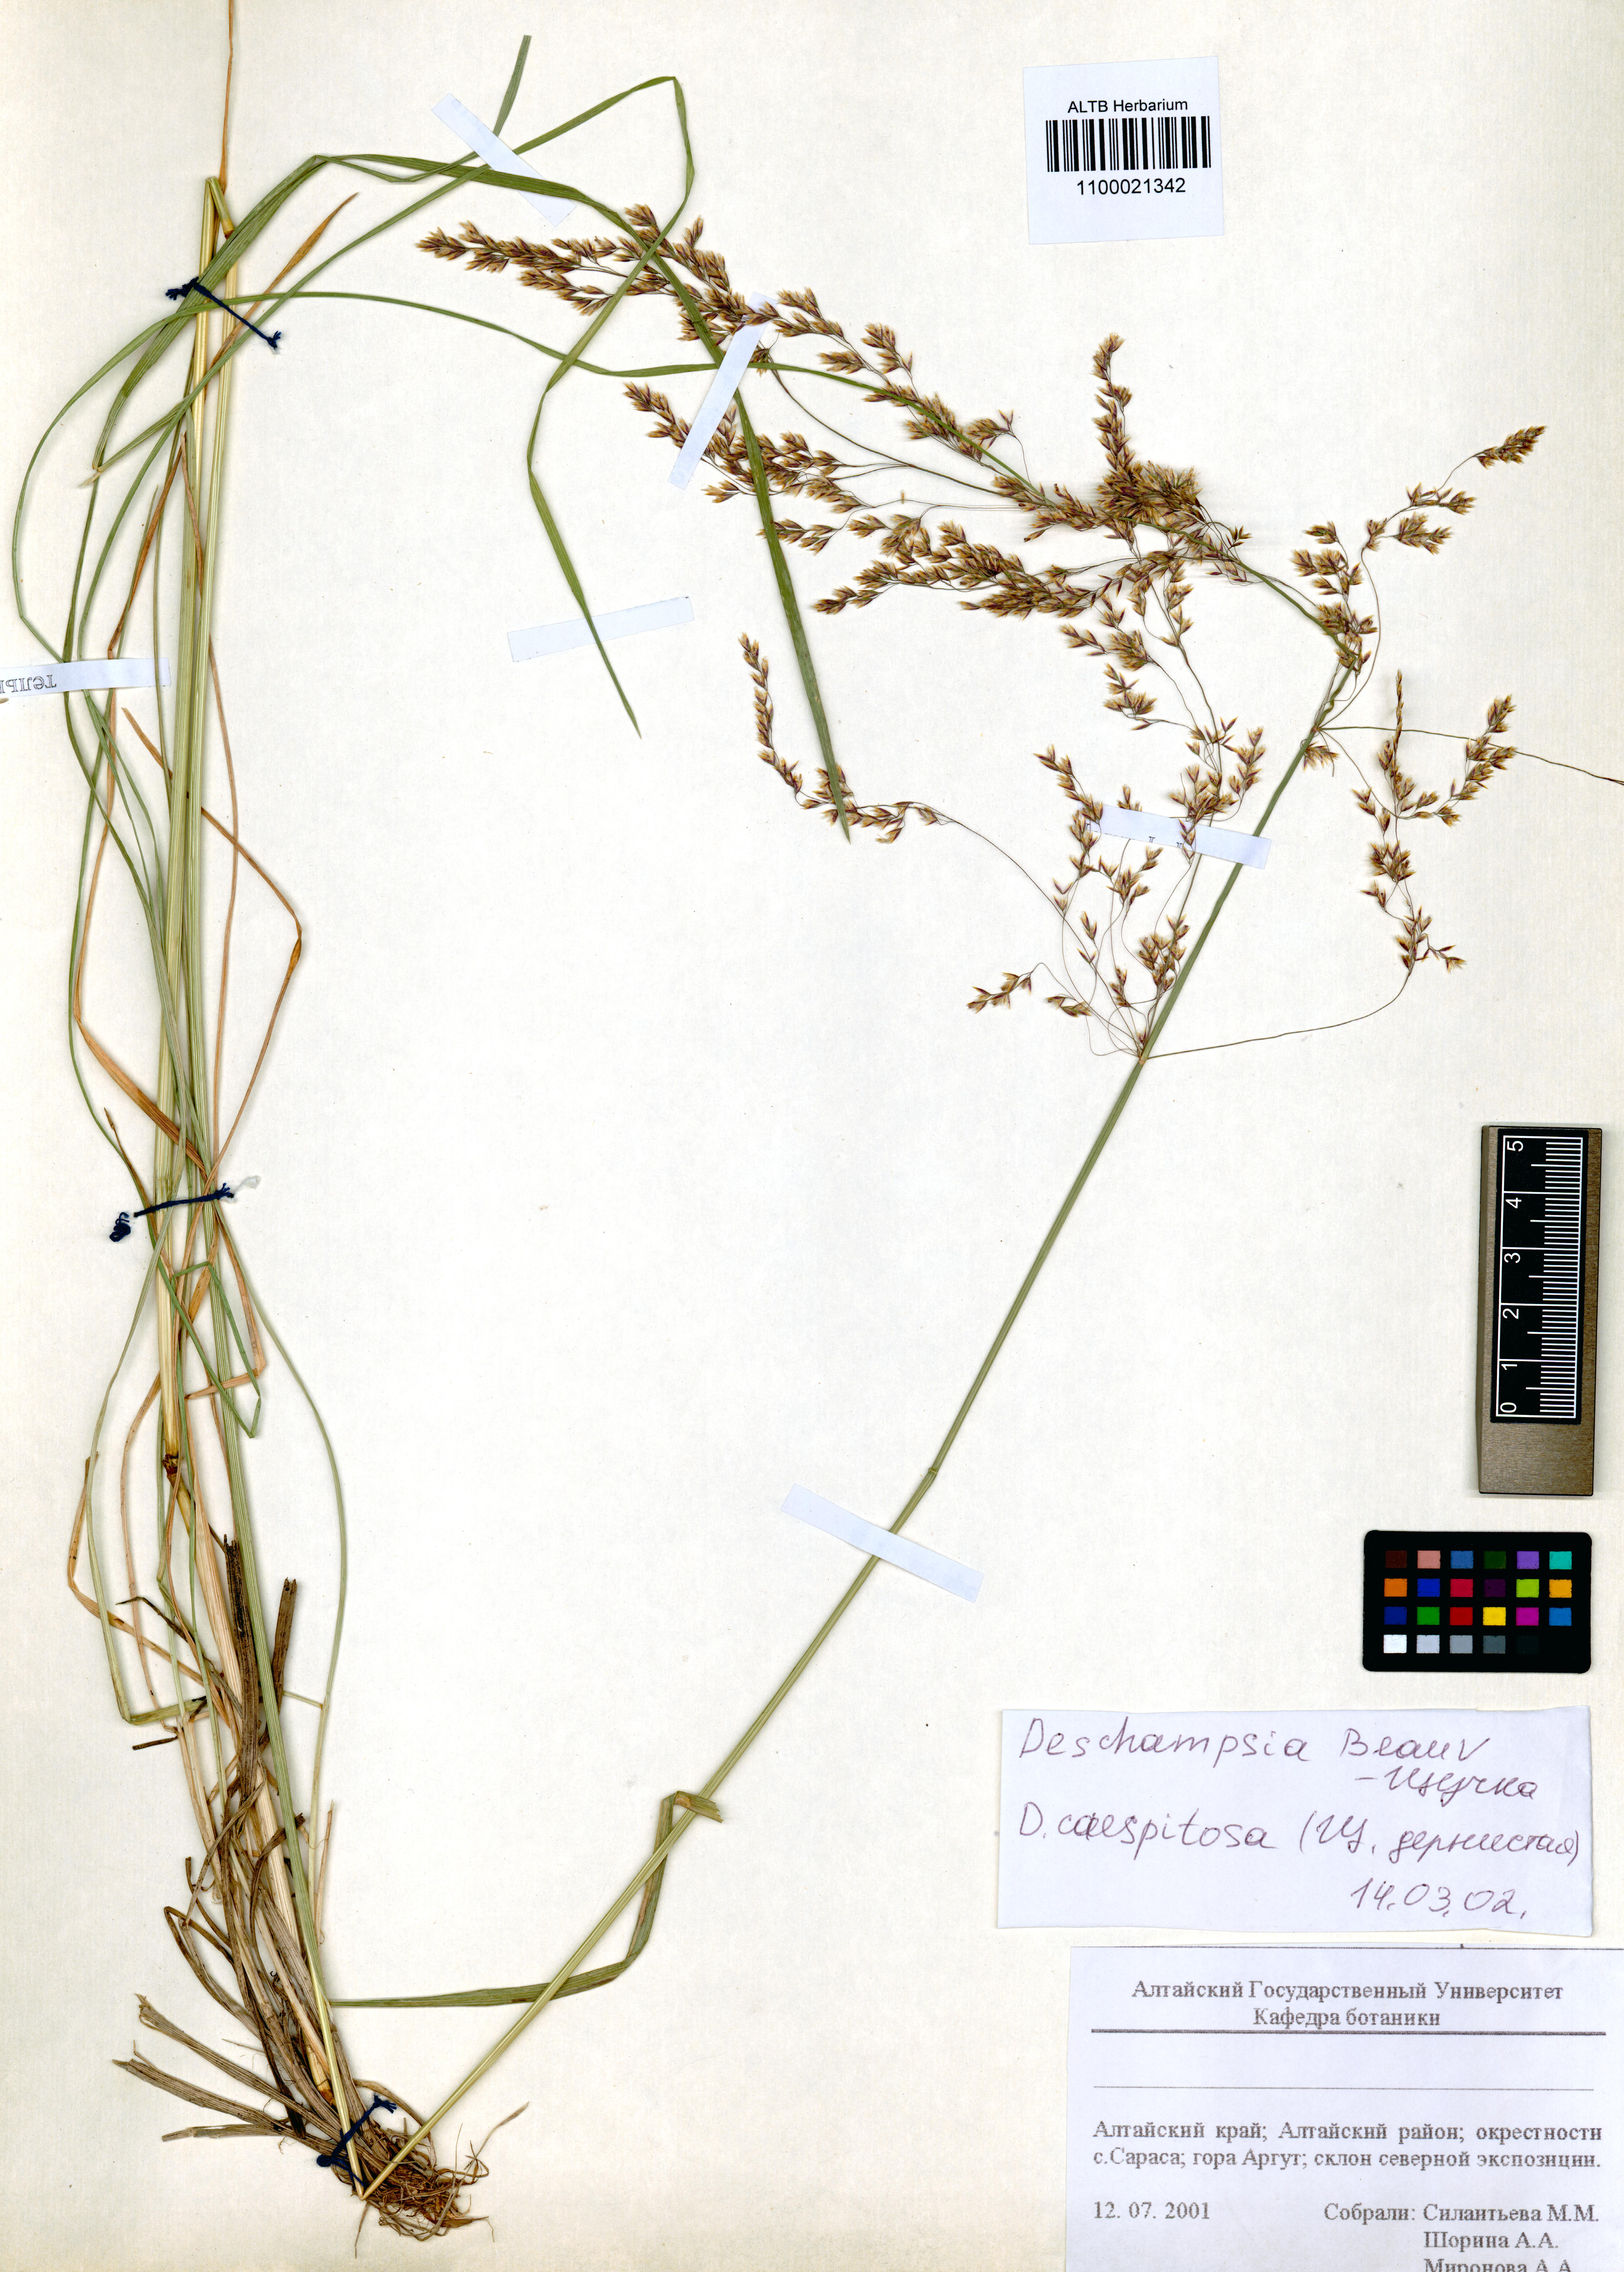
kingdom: Plantae
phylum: Tracheophyta
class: Liliopsida
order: Poales
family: Poaceae
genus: Deschampsia
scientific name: Deschampsia cespitosa
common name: Tufted hair-grass
